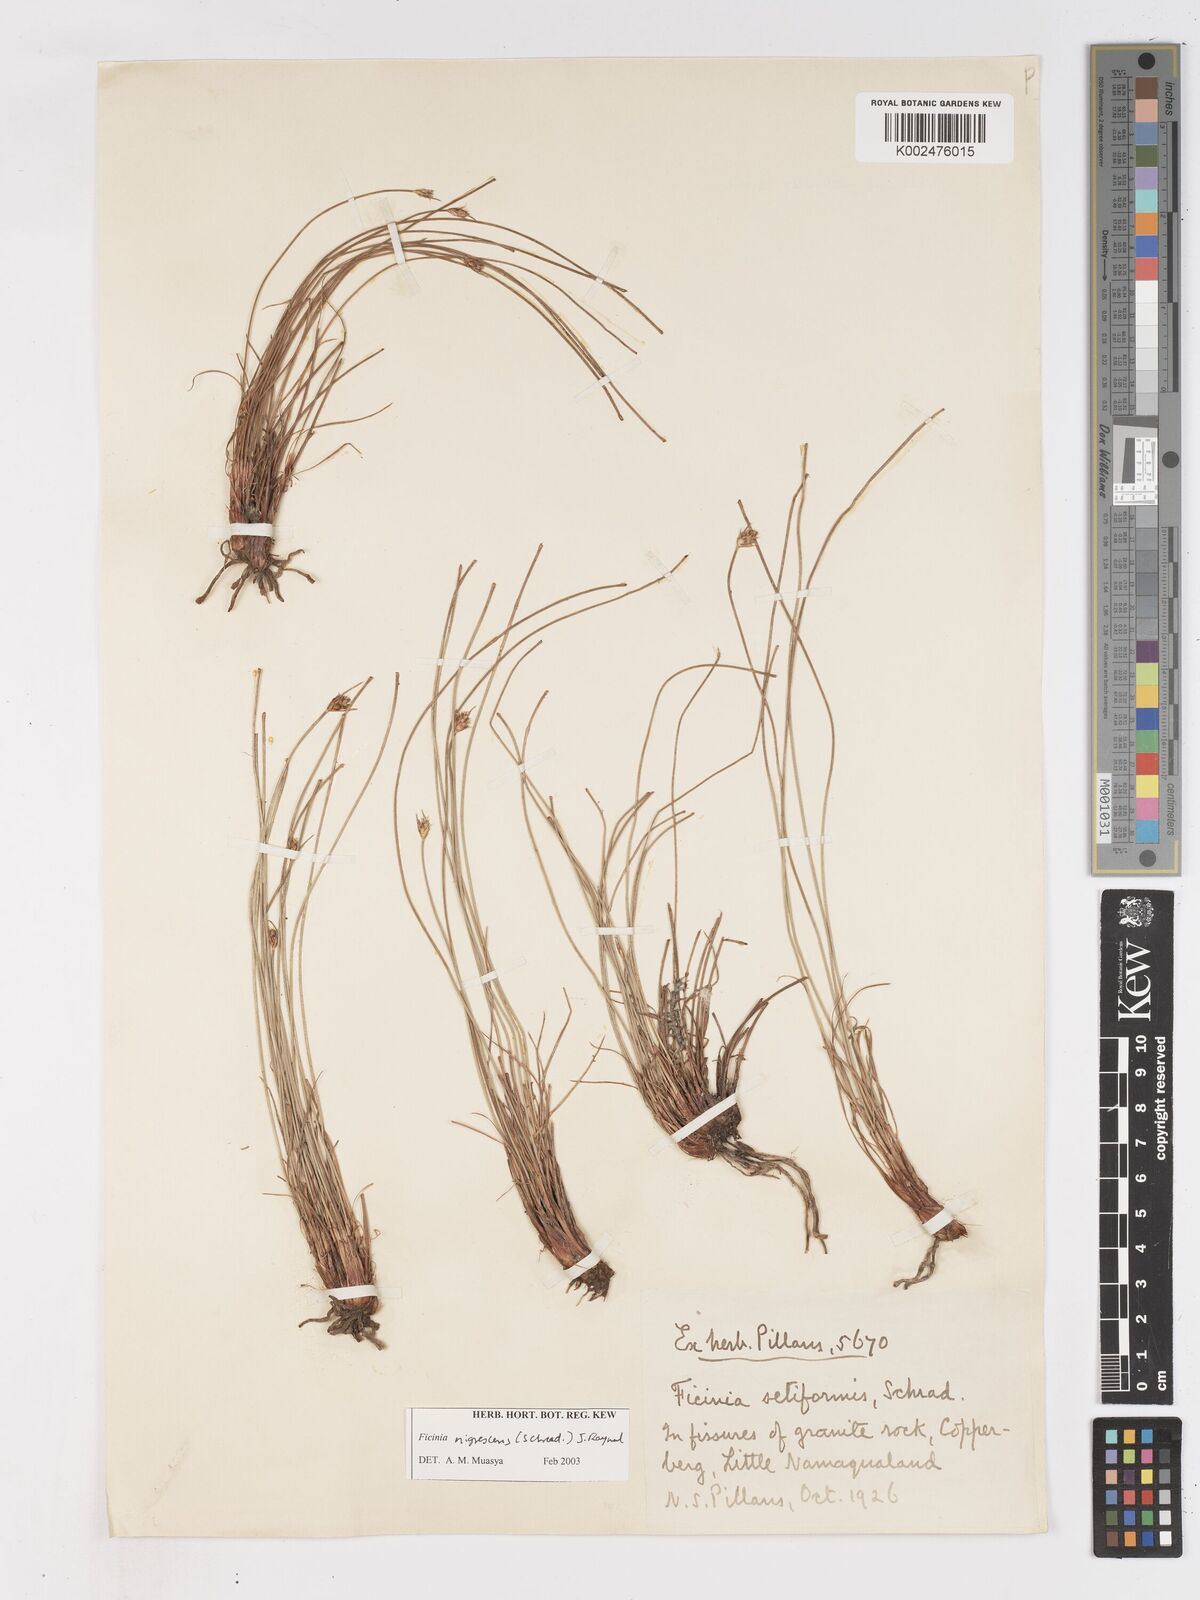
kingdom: Plantae
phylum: Tracheophyta
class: Liliopsida
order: Poales
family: Cyperaceae
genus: Ficinia
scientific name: Ficinia indica
